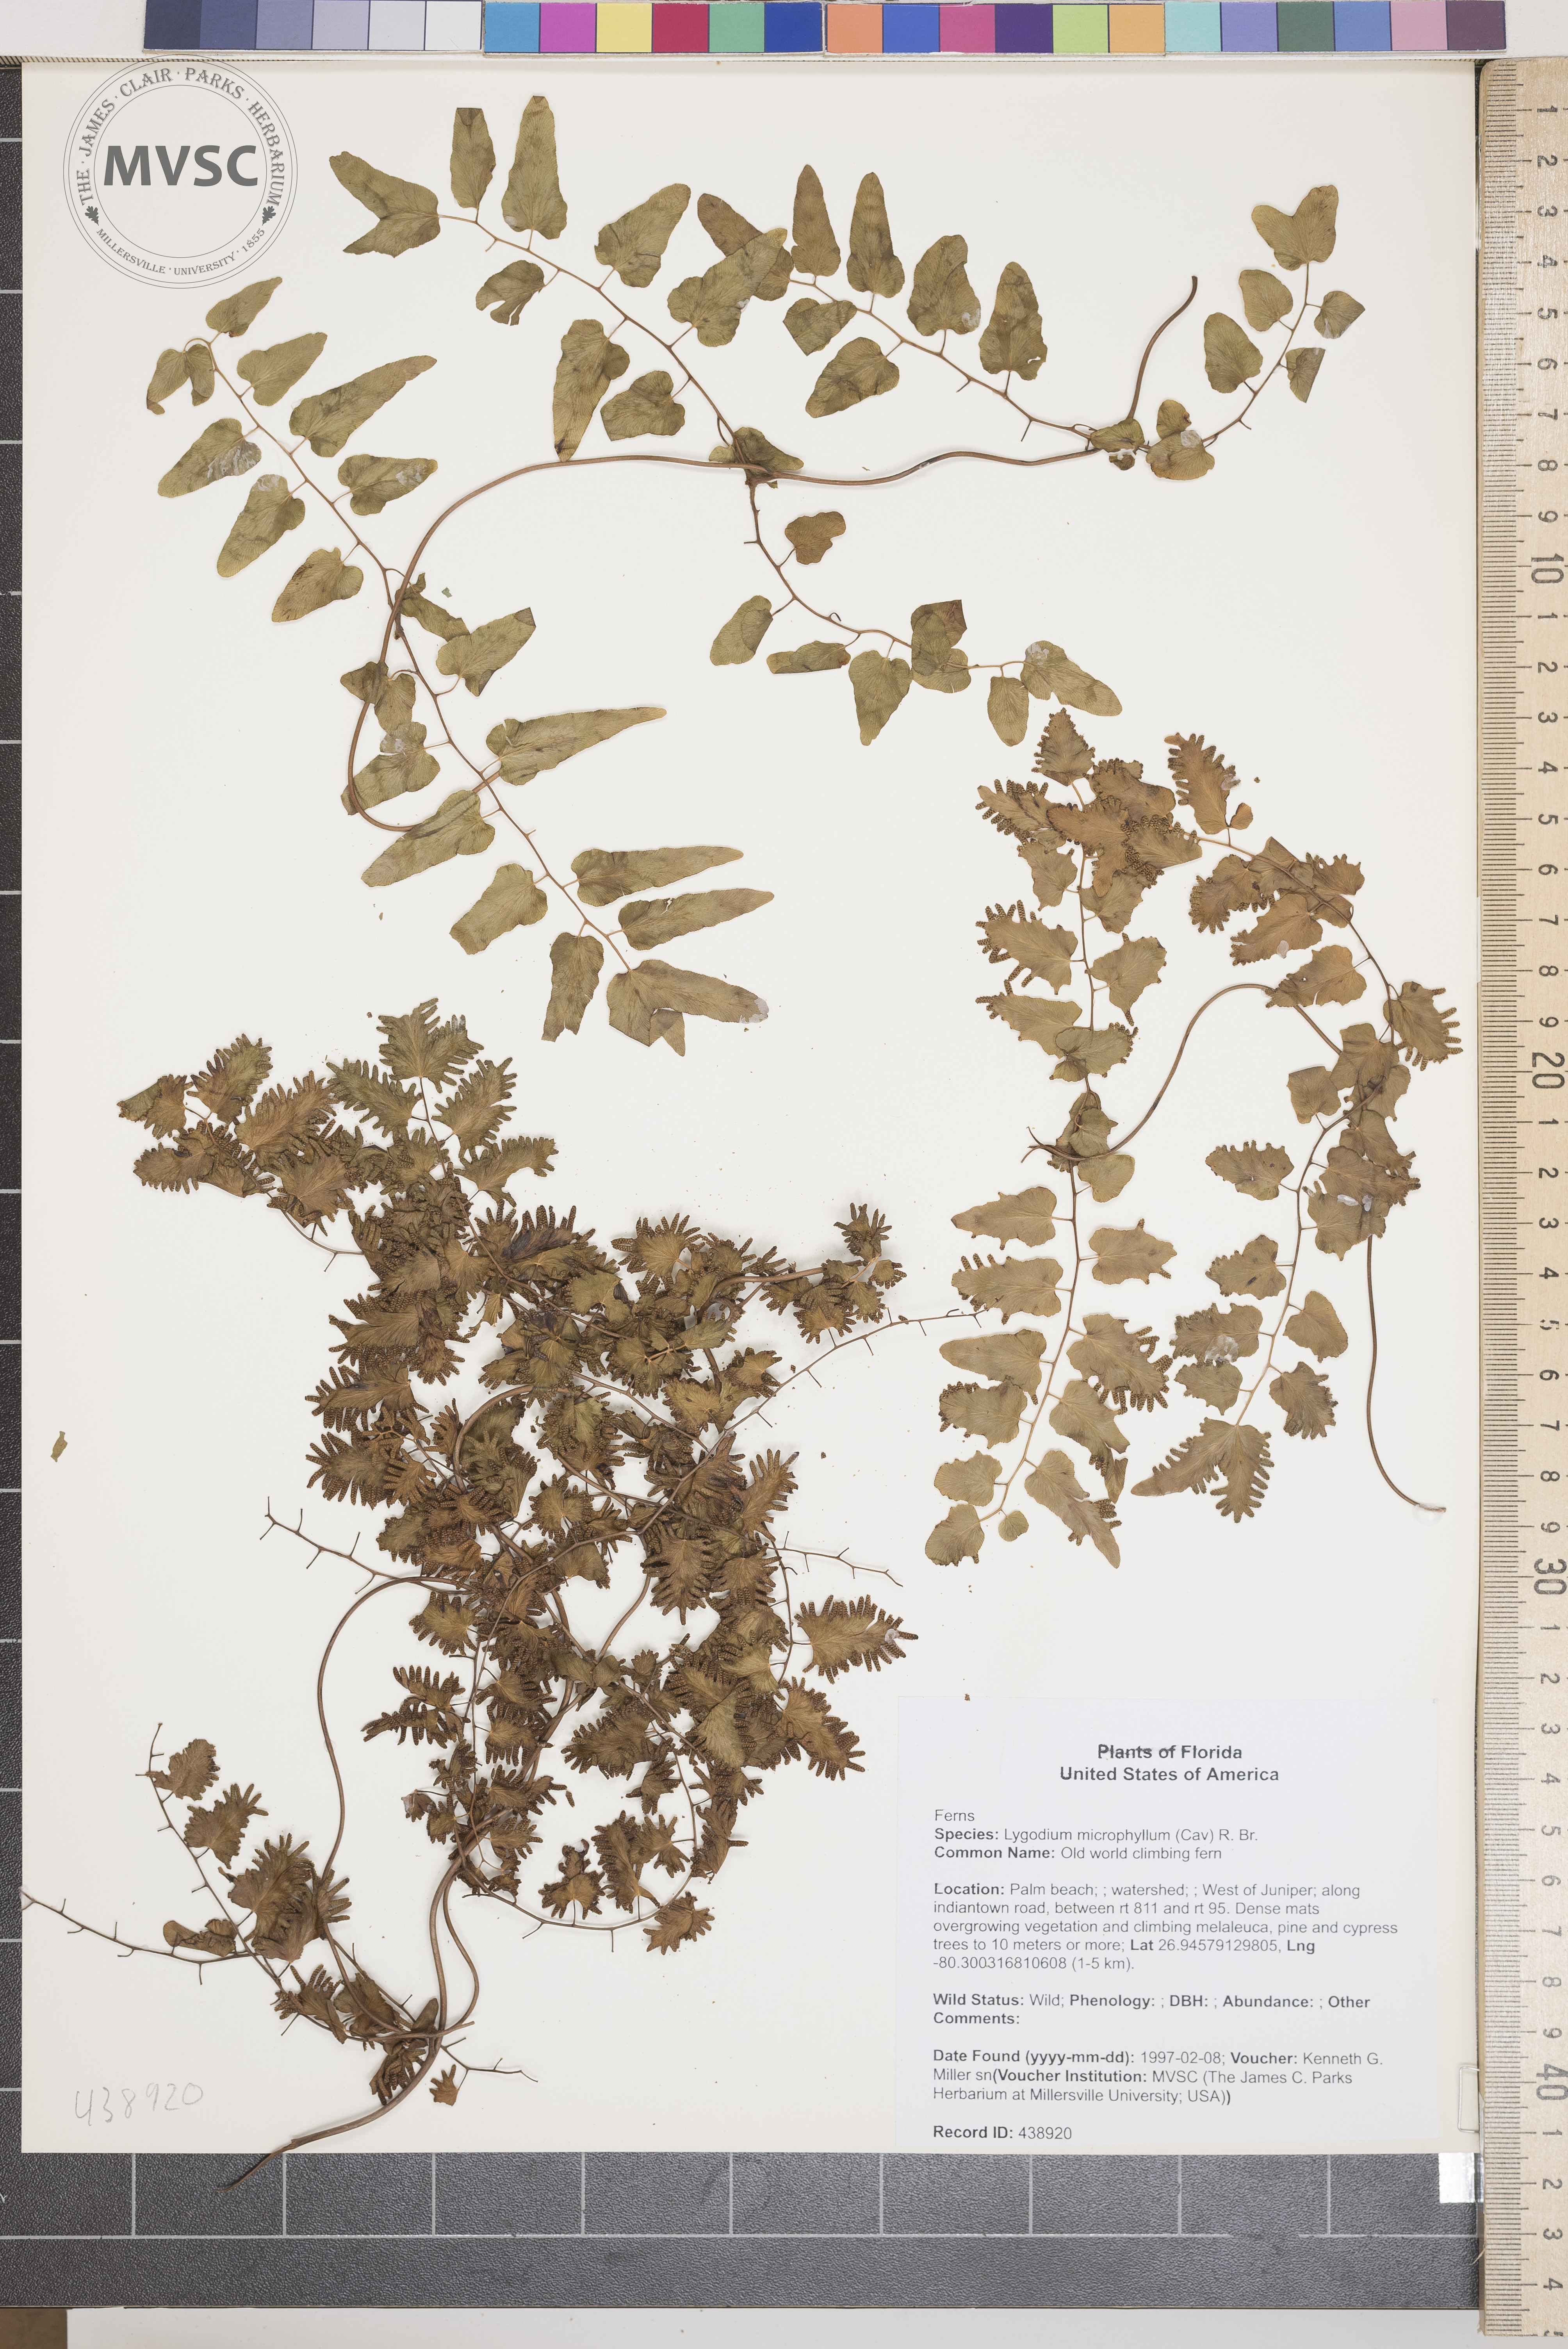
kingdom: Plantae
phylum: Tracheophyta
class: Polypodiopsida
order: Schizaeales
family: Lygodiaceae
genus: Lygodium
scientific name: Lygodium microphyllum
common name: Old world climbing fern
